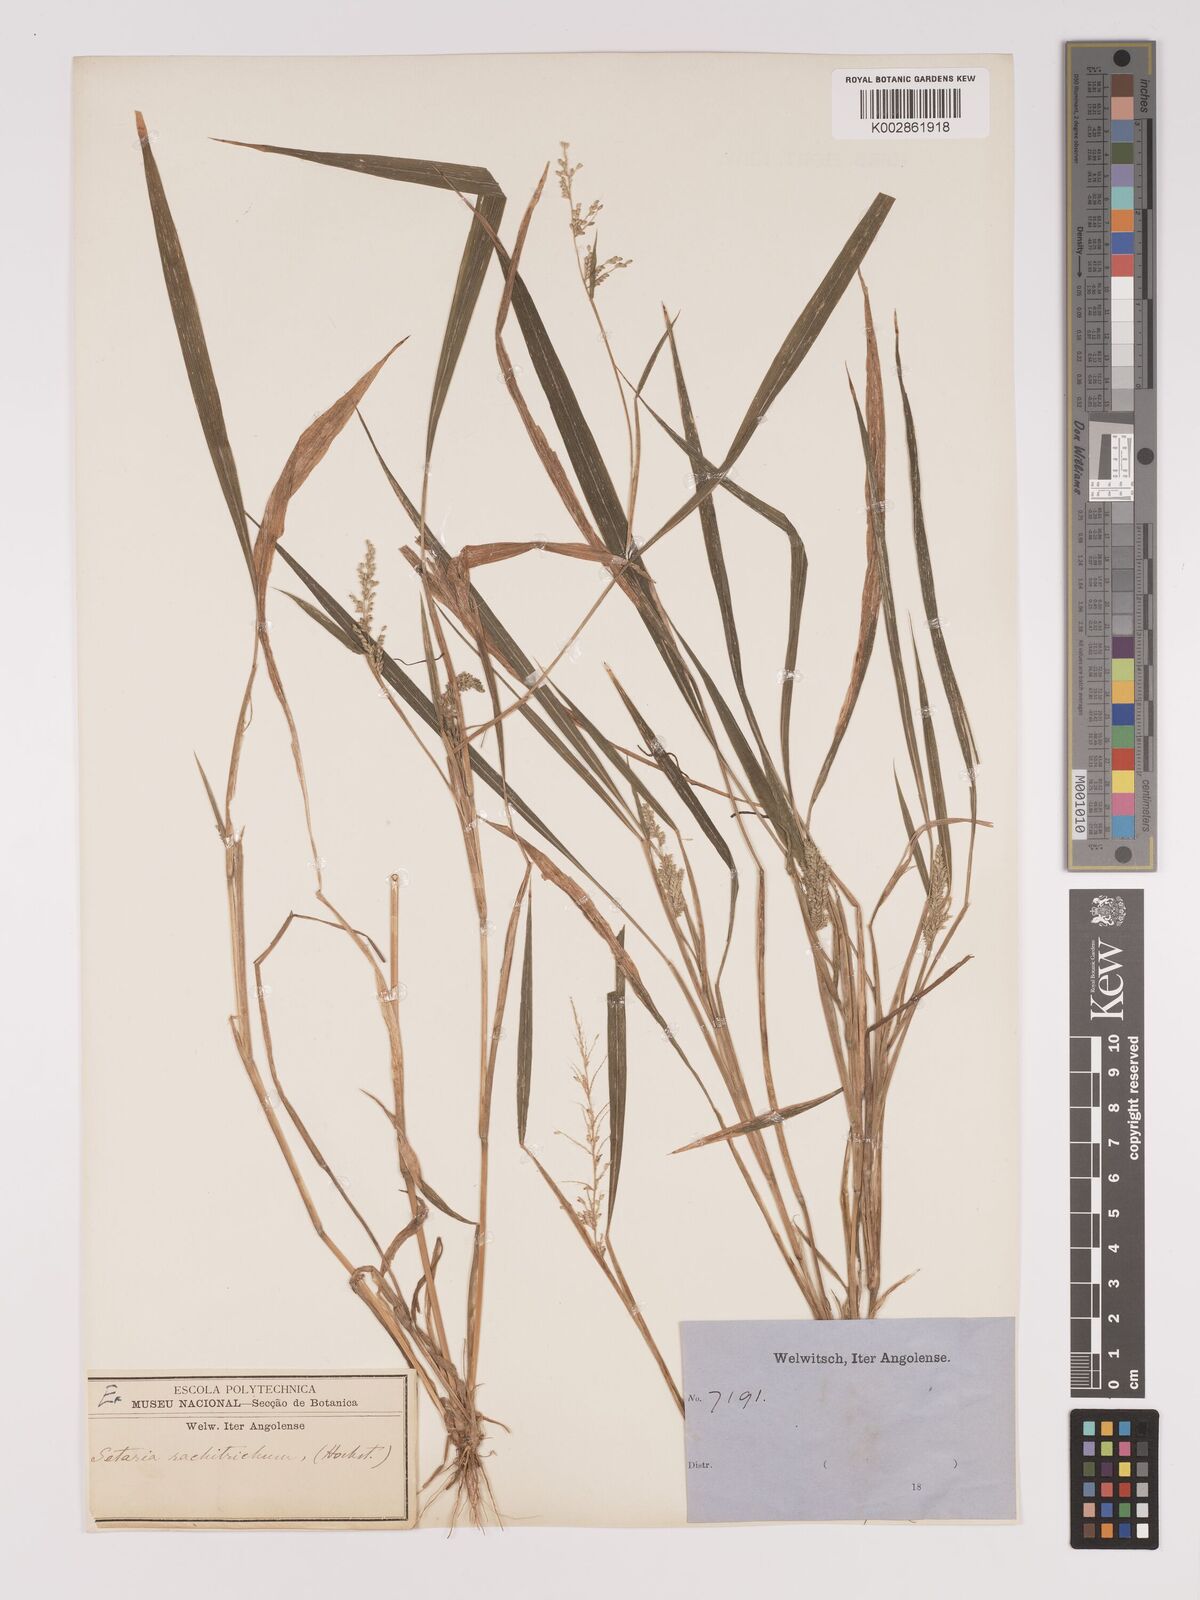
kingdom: Plantae
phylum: Tracheophyta
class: Liliopsida
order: Poales
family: Poaceae
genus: Setaria
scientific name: Setaria homonyma
